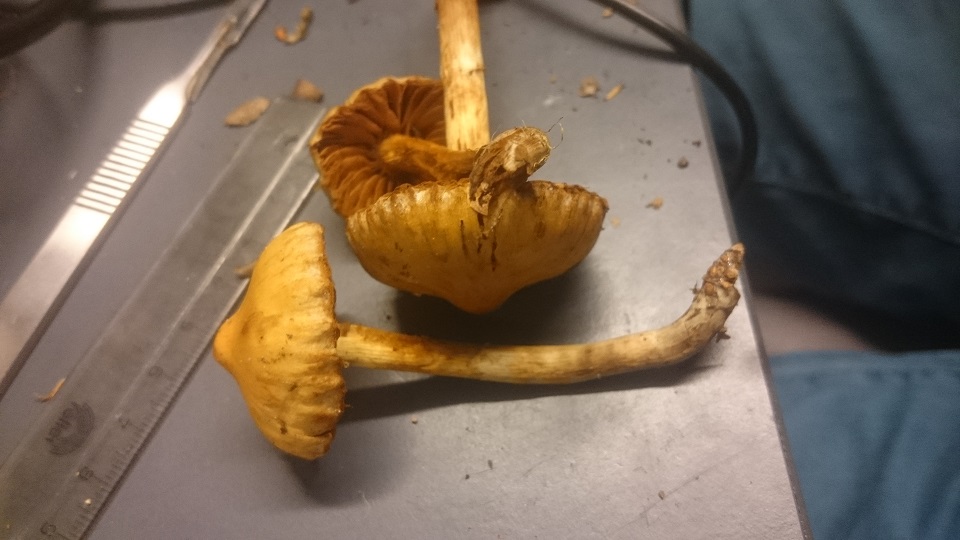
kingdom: Fungi
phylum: Basidiomycota
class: Agaricomycetes
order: Agaricales
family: Cortinariaceae
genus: Cortinarius
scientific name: Cortinarius hinnuleus
